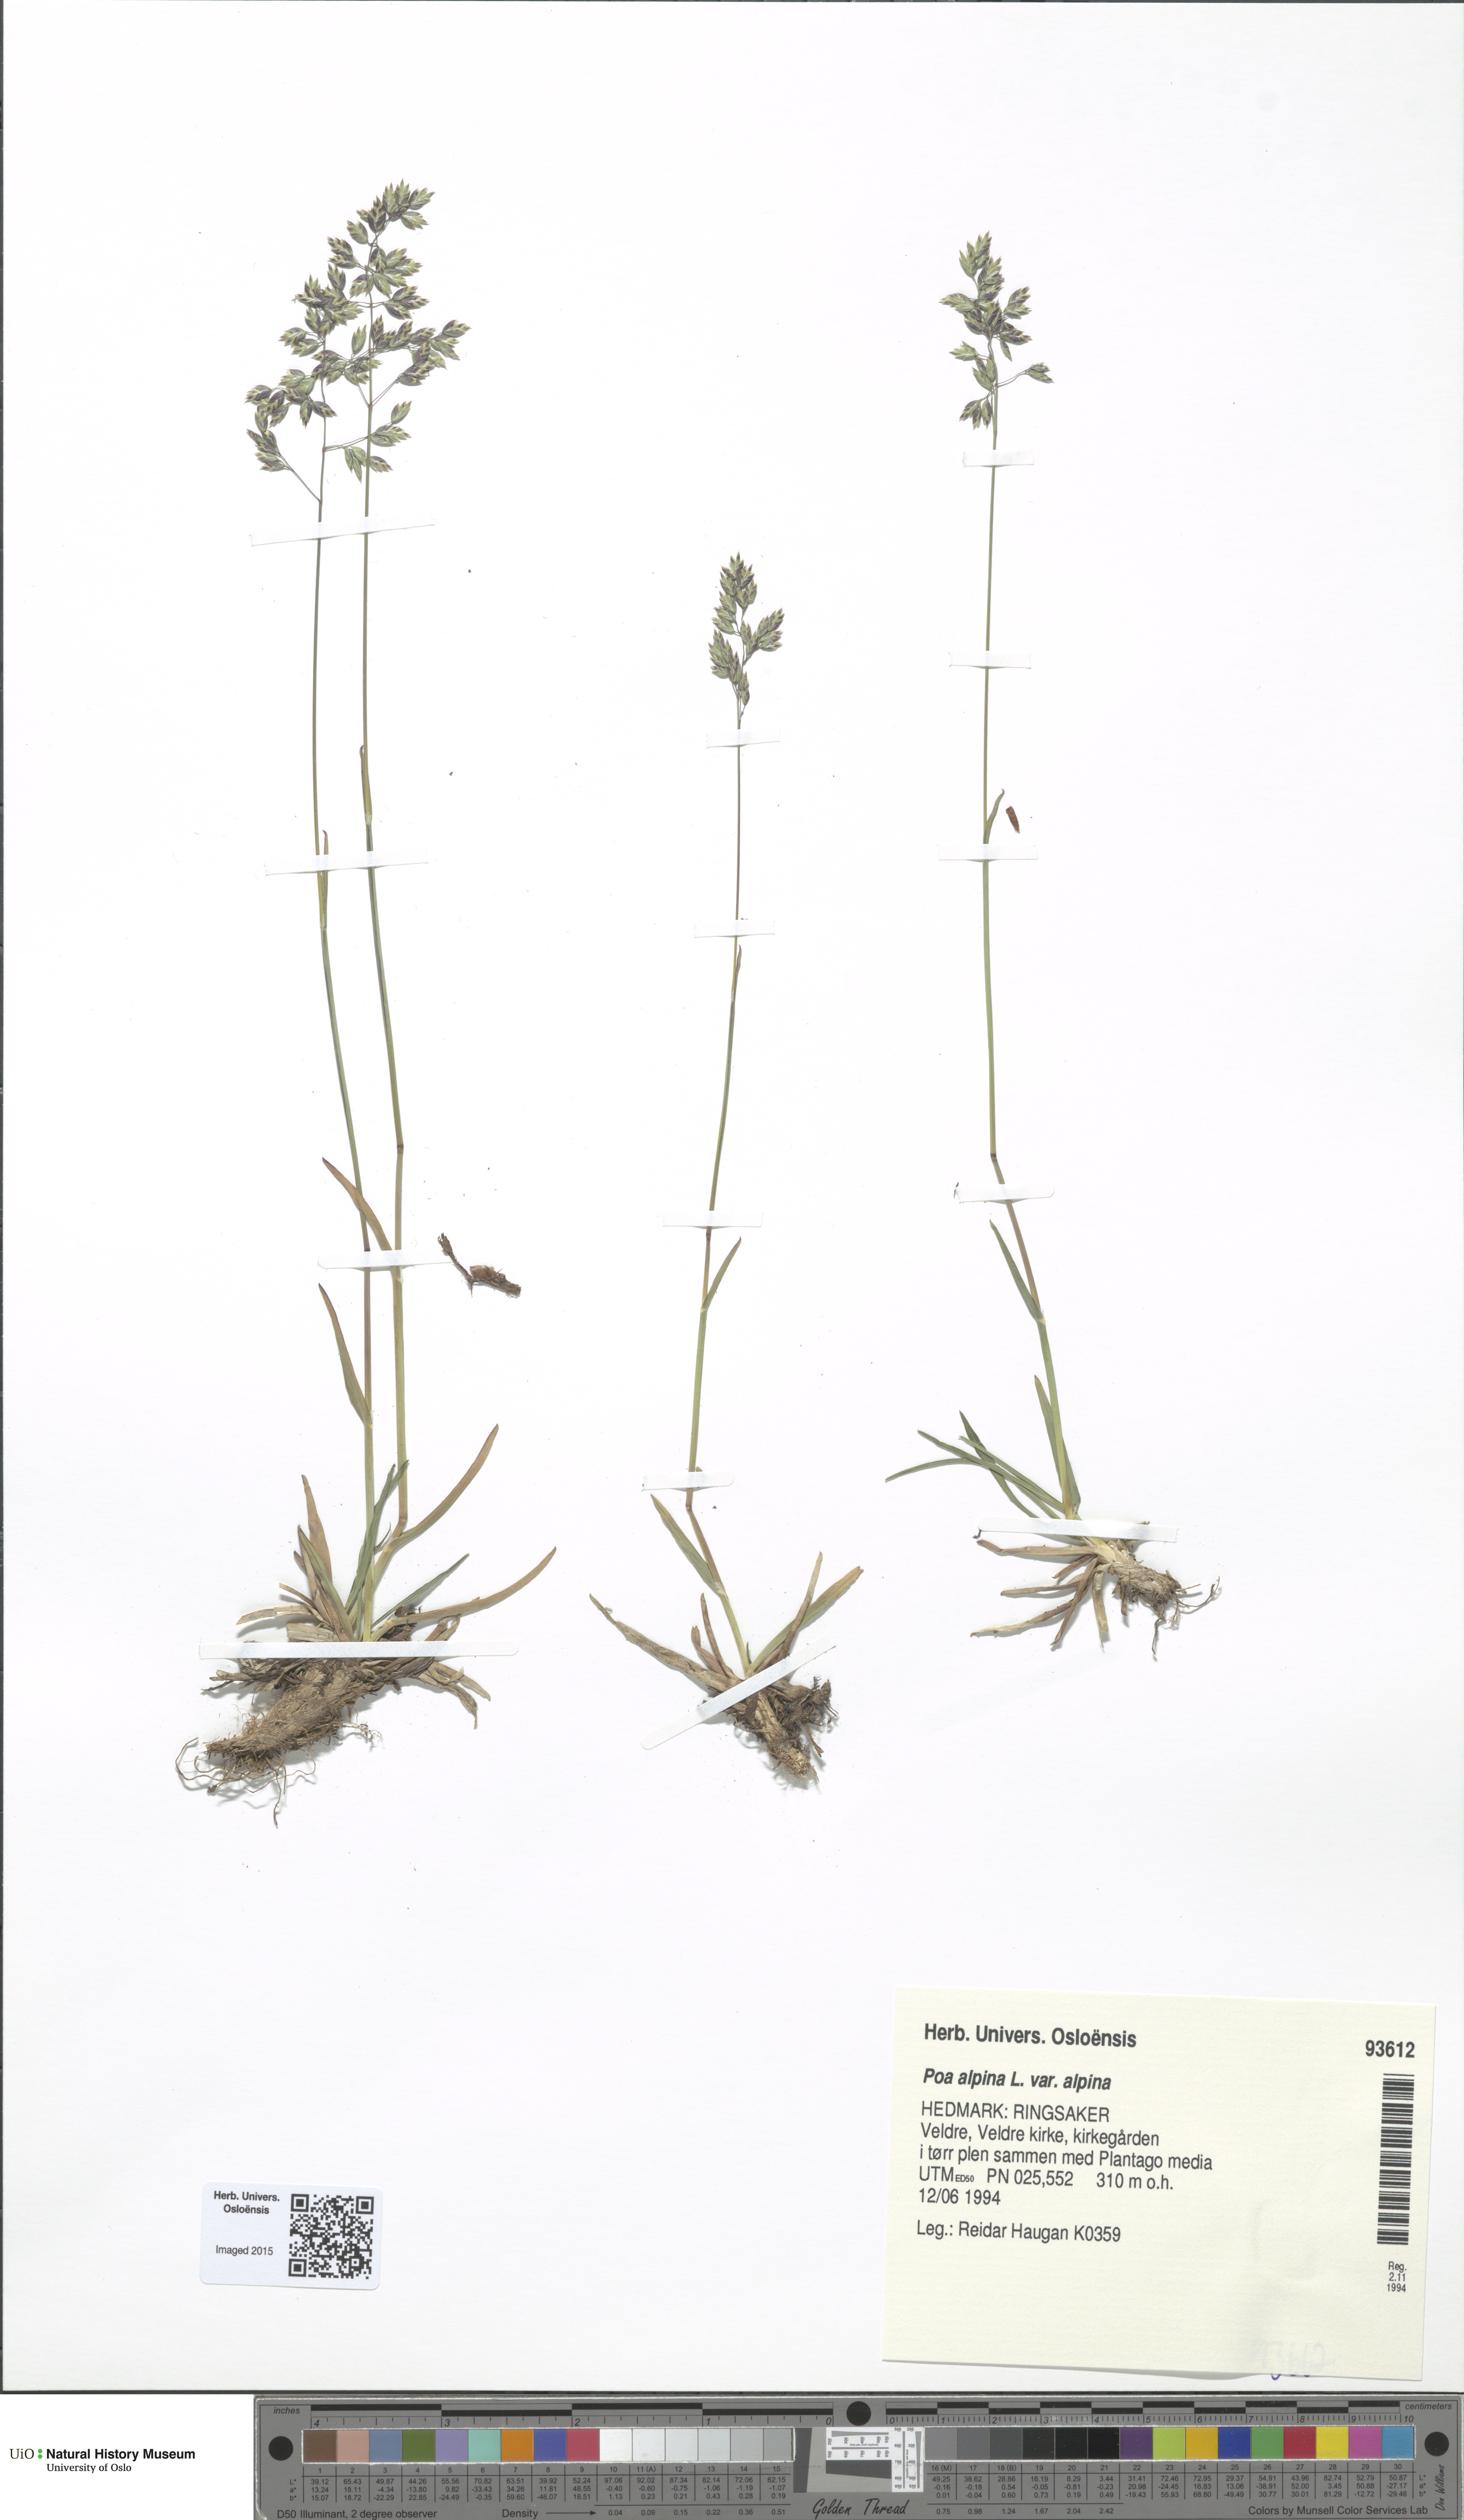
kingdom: Plantae
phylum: Tracheophyta
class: Liliopsida
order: Poales
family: Poaceae
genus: Poa
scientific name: Poa alpina
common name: Alpine bluegrass
